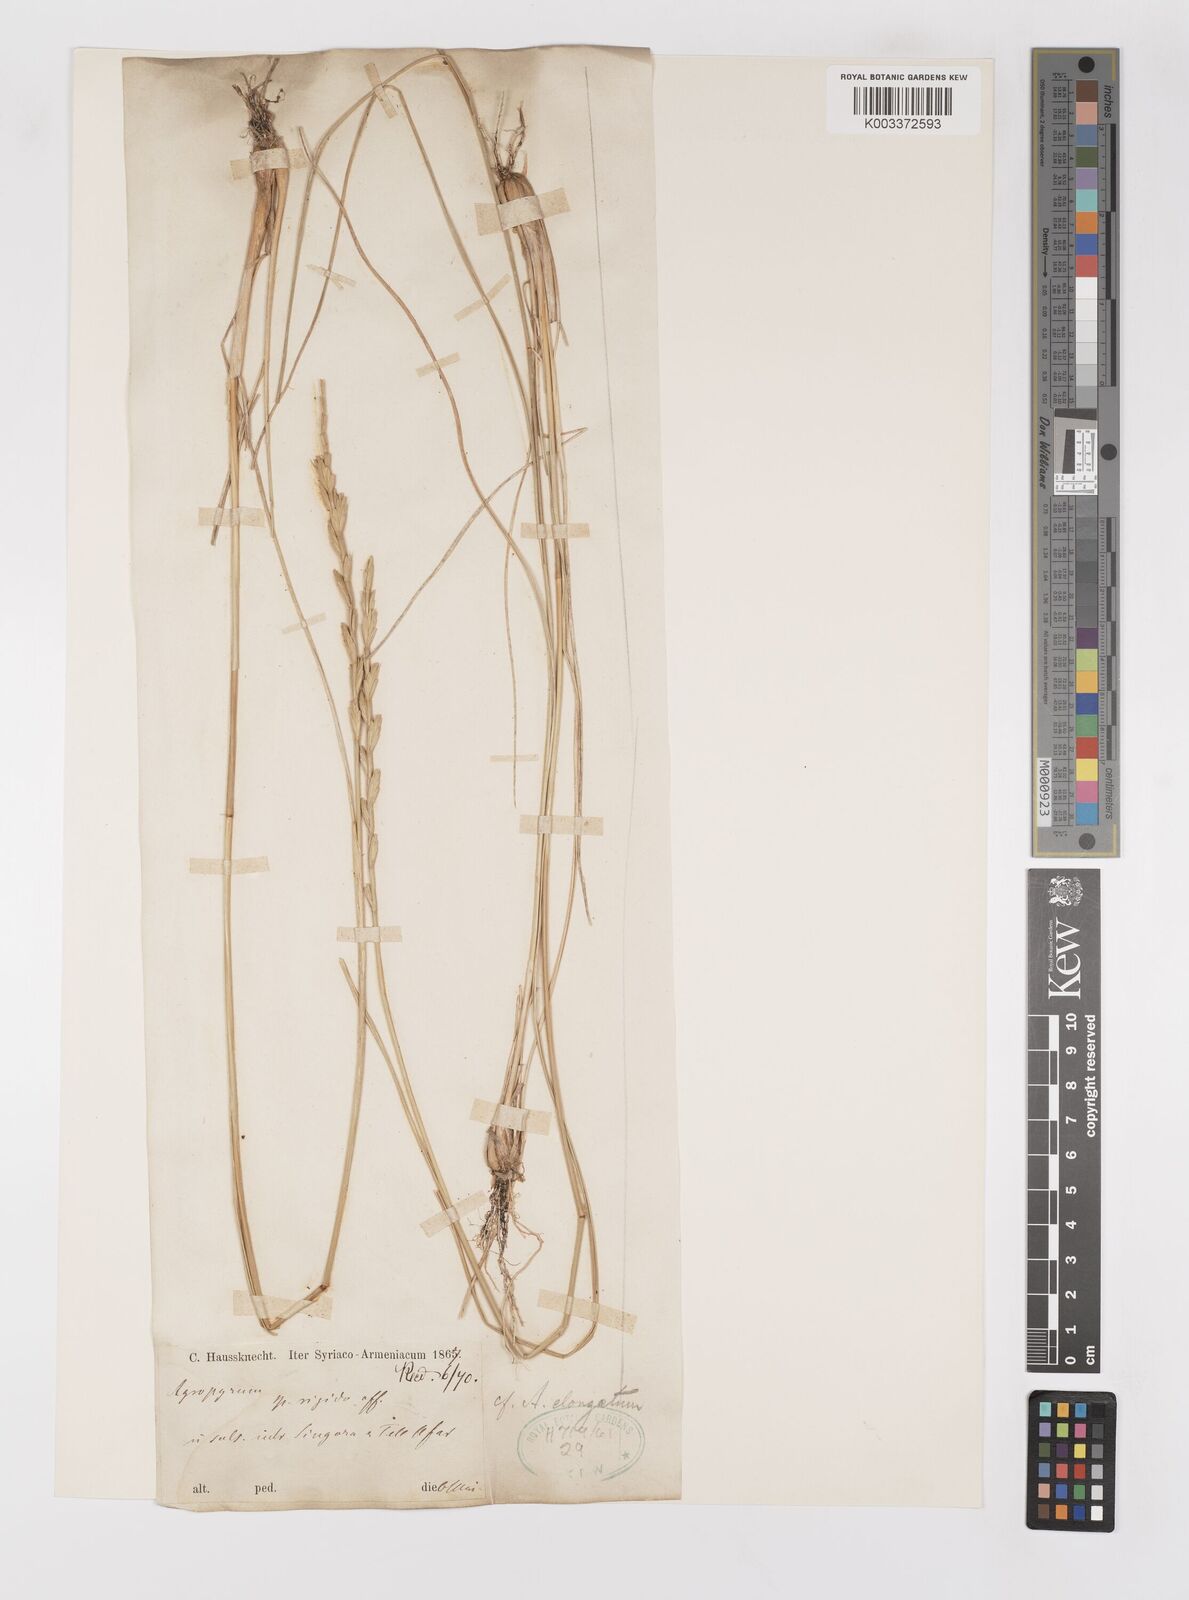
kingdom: Plantae
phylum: Tracheophyta
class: Liliopsida
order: Poales
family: Poaceae
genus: Elymus
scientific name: Elymus
